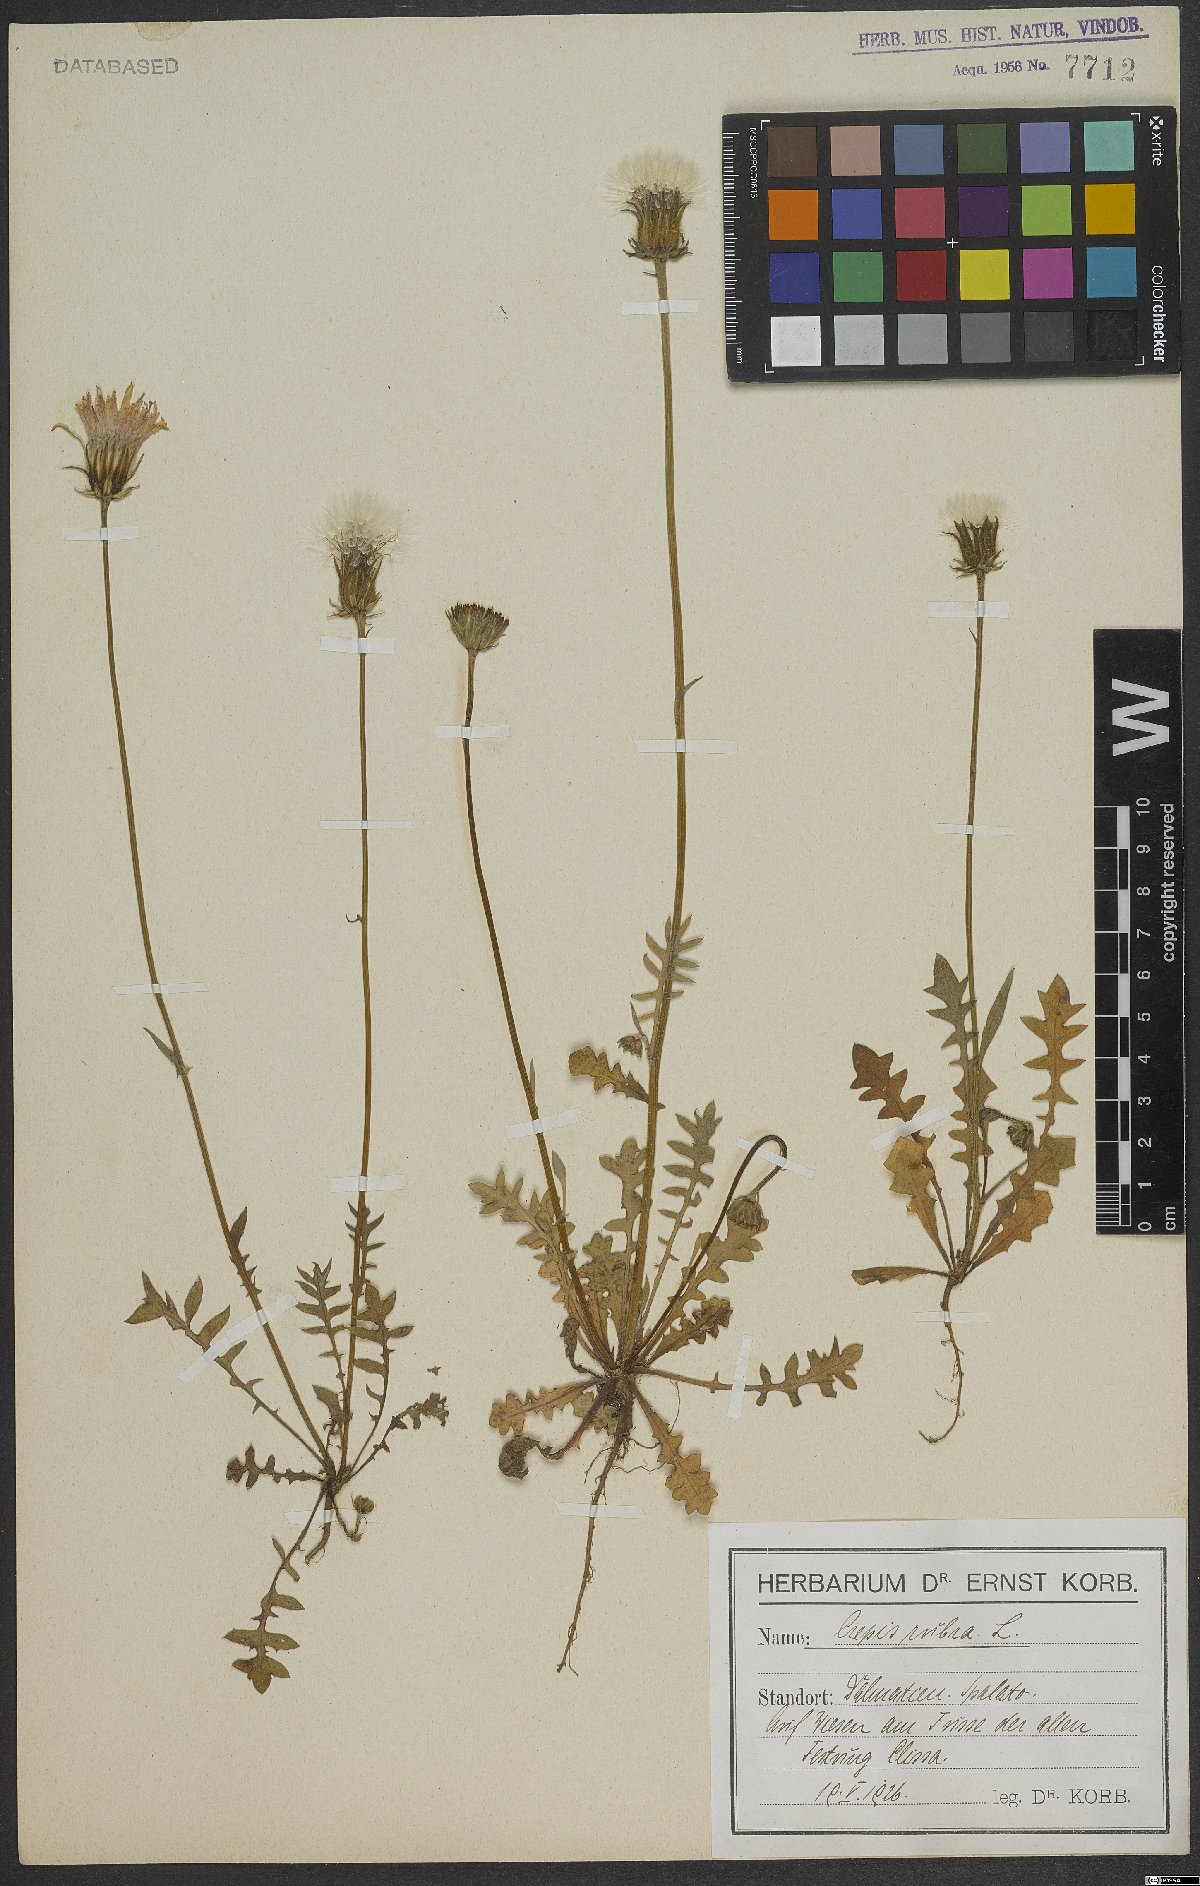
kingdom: Plantae
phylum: Tracheophyta
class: Magnoliopsida
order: Asterales
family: Asteraceae
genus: Crepis
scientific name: Crepis rubra
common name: Pink hawk's-beard
